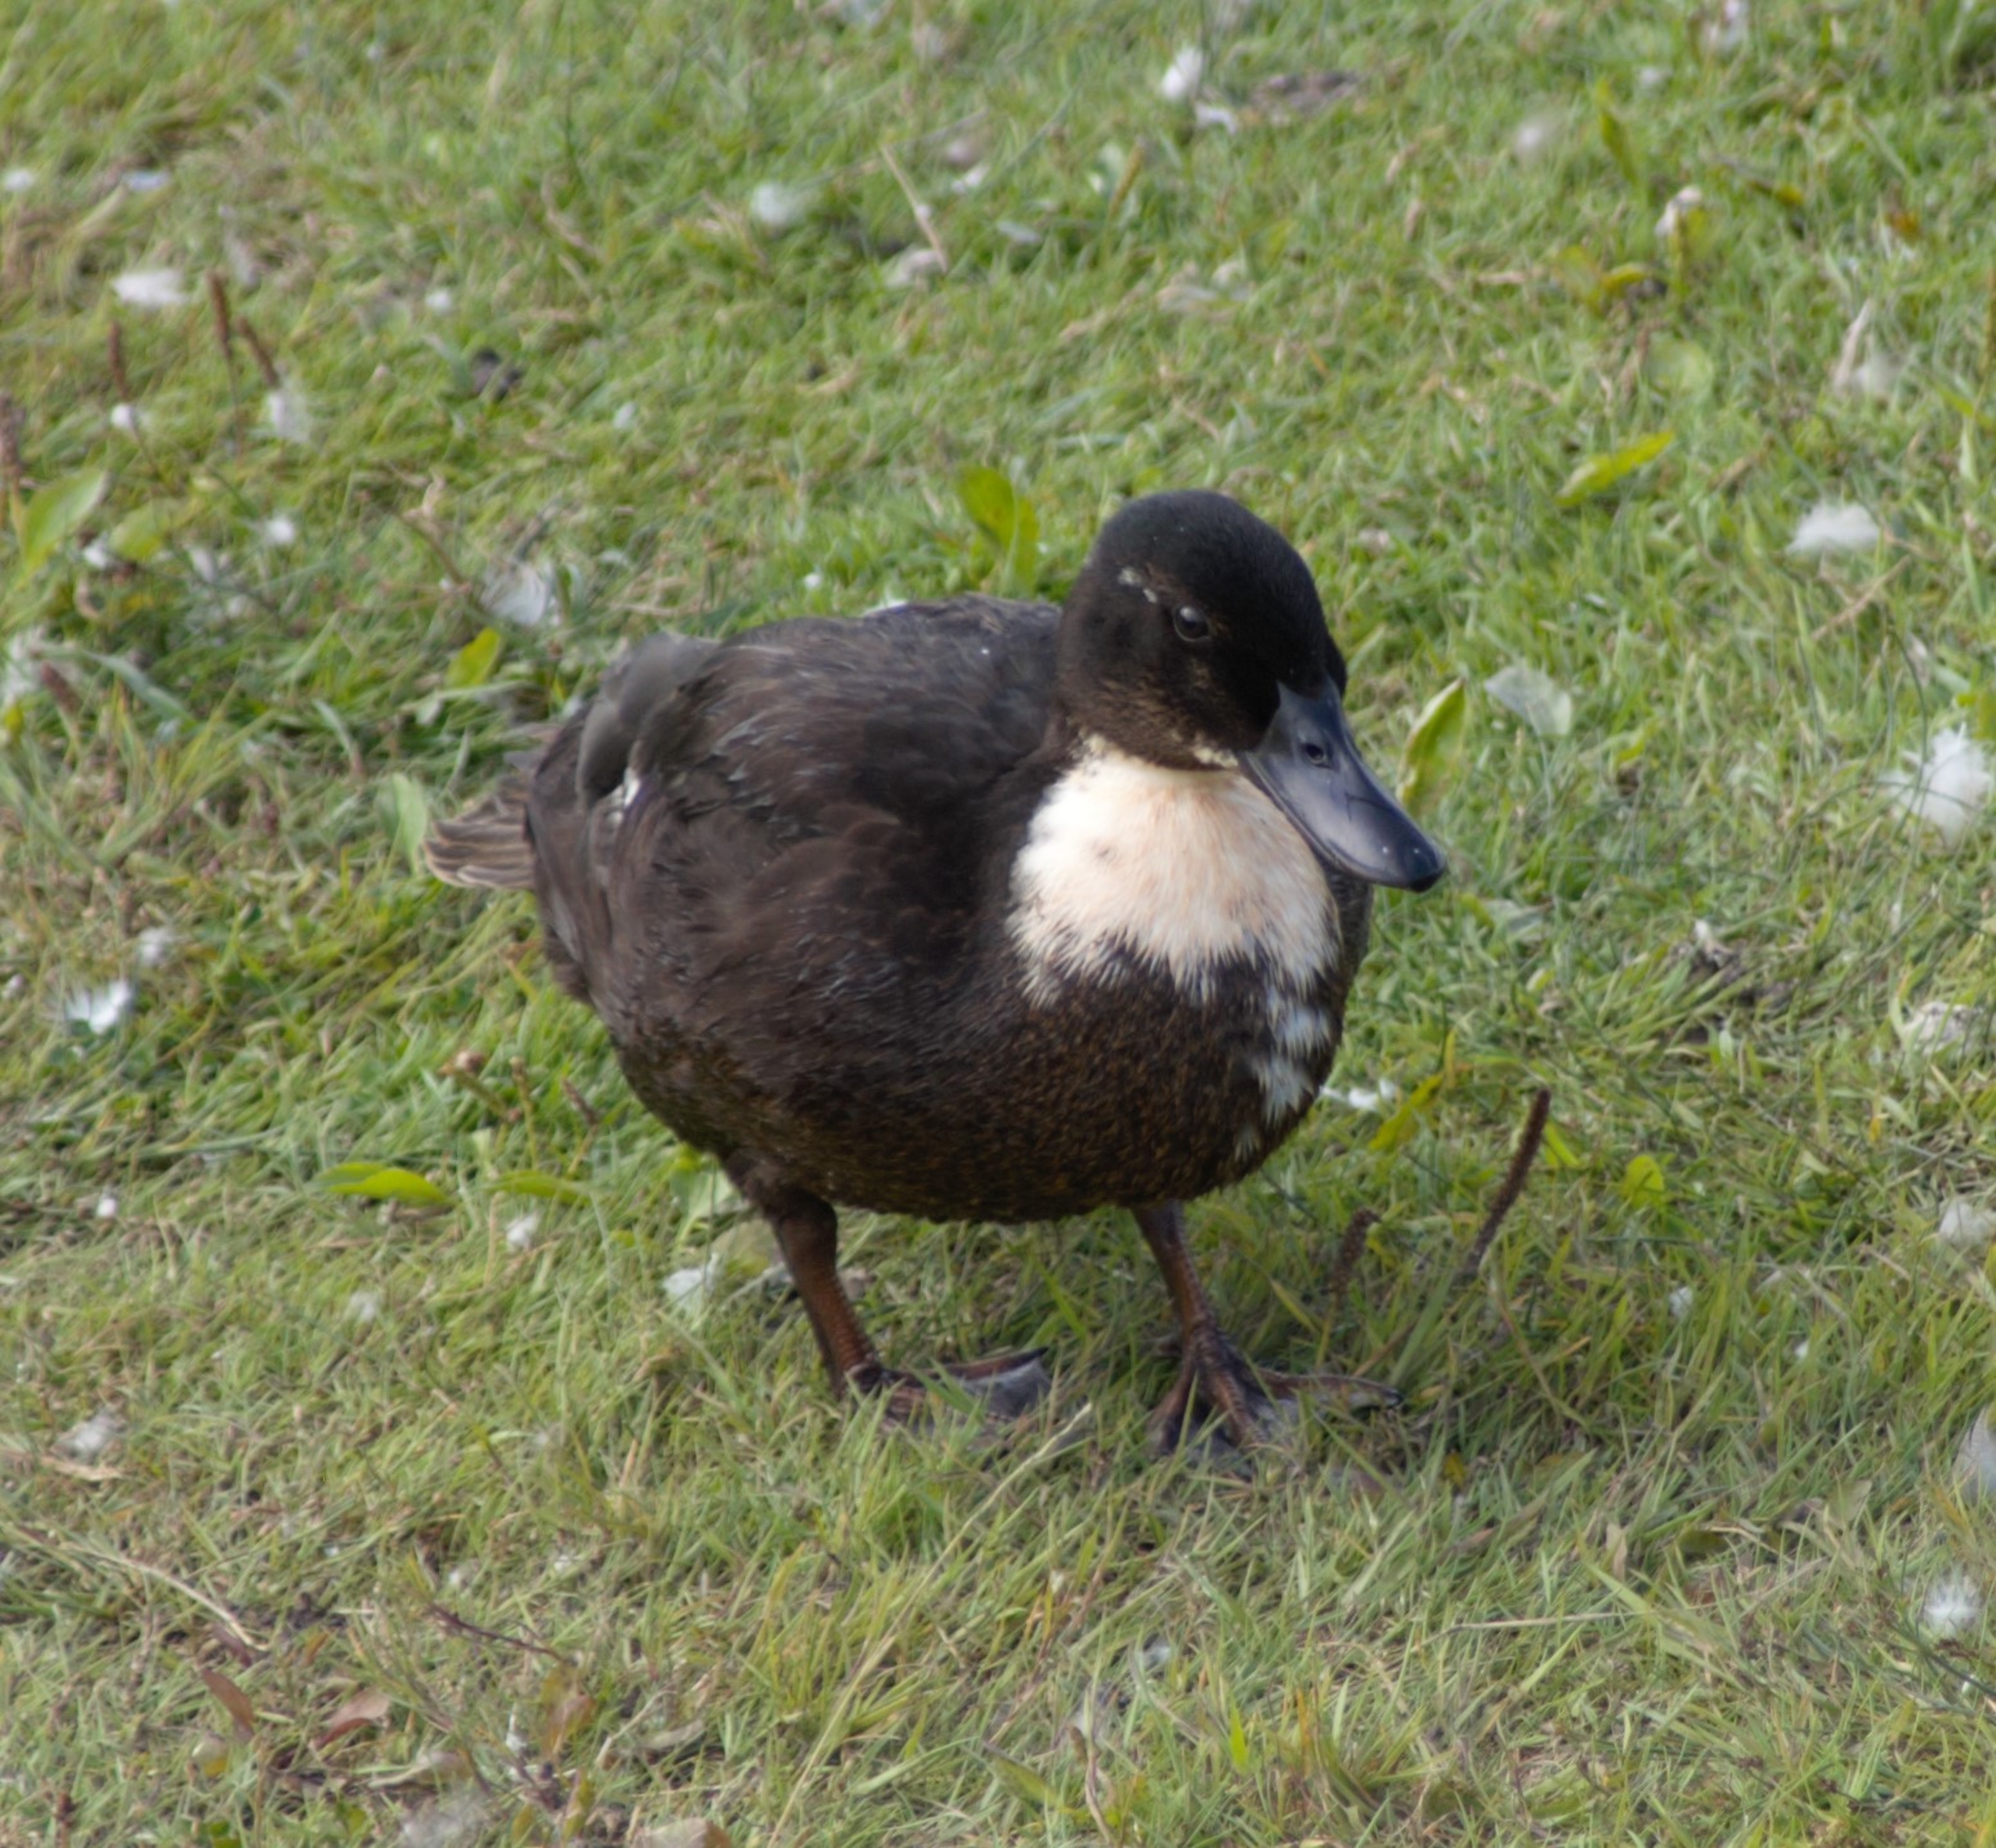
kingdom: Animalia
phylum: Chordata
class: Aves
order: Anseriformes
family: Anatidae
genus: Anas
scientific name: Anas platyrhynchos
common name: Gråand
